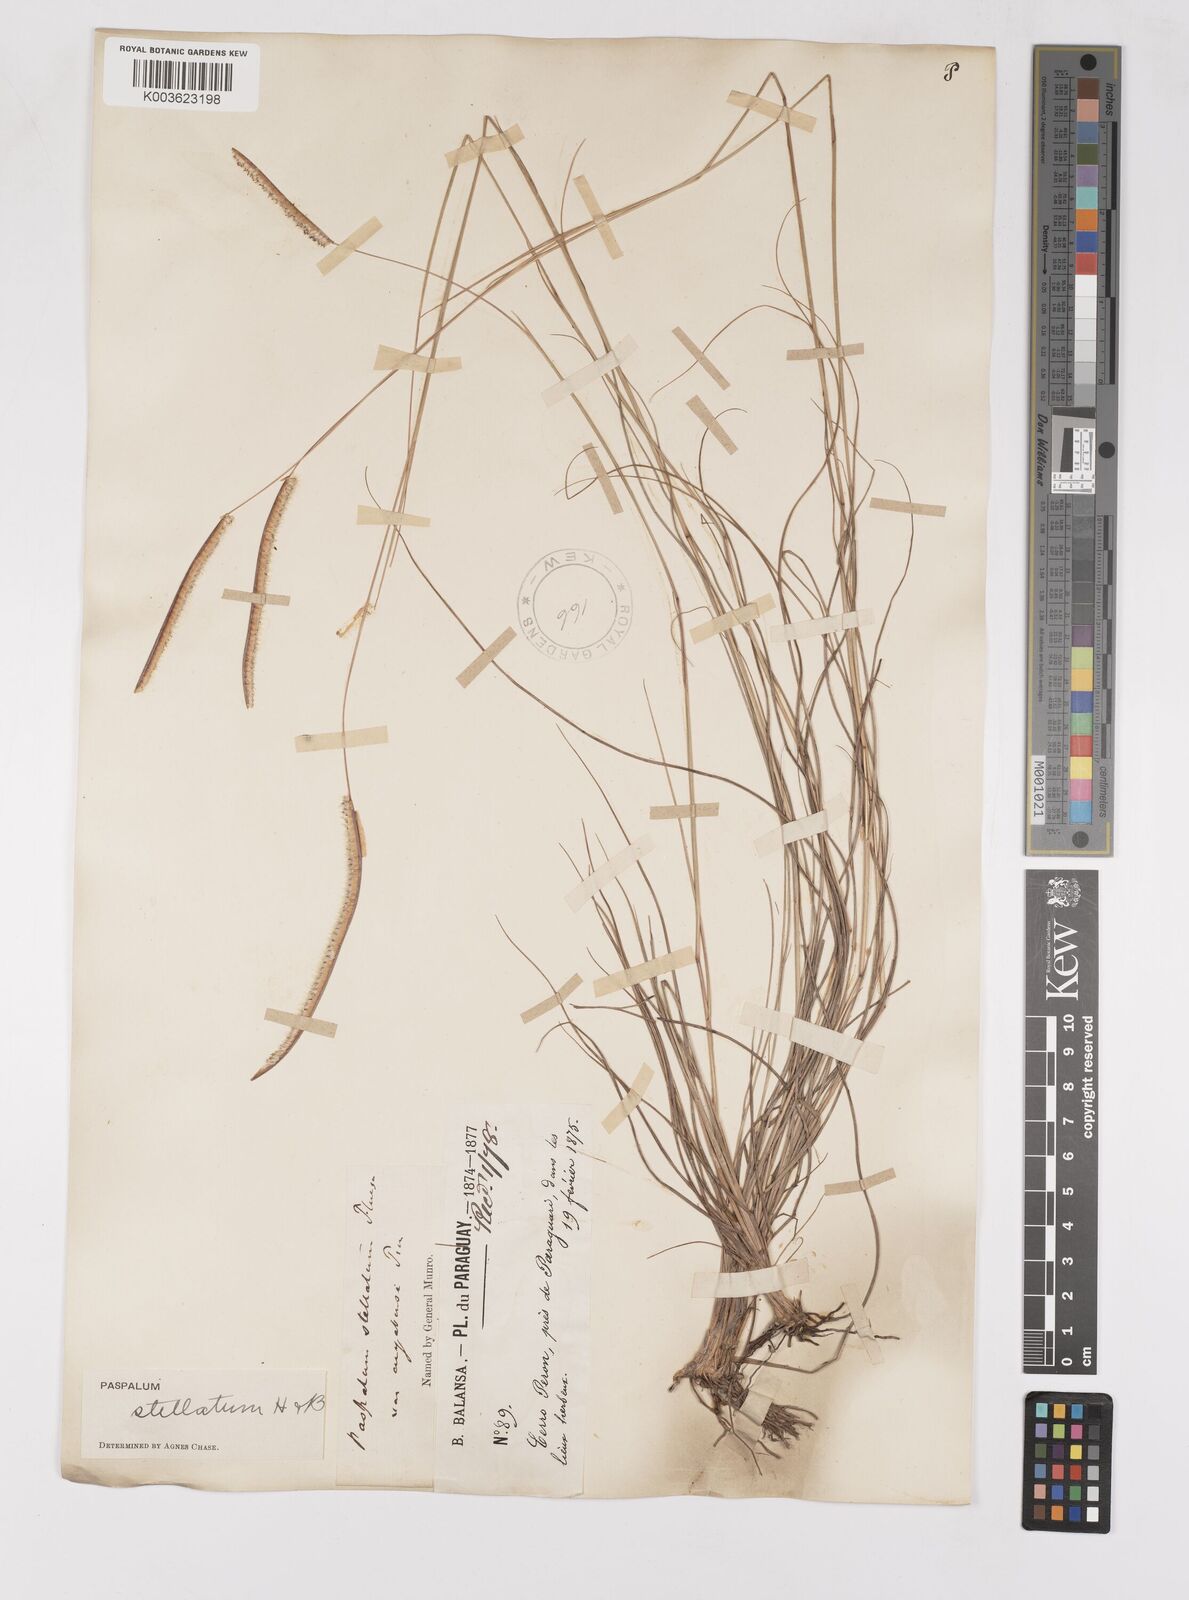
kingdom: Plantae
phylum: Tracheophyta
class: Liliopsida
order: Poales
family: Poaceae
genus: Paspalum
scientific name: Paspalum stellatum
